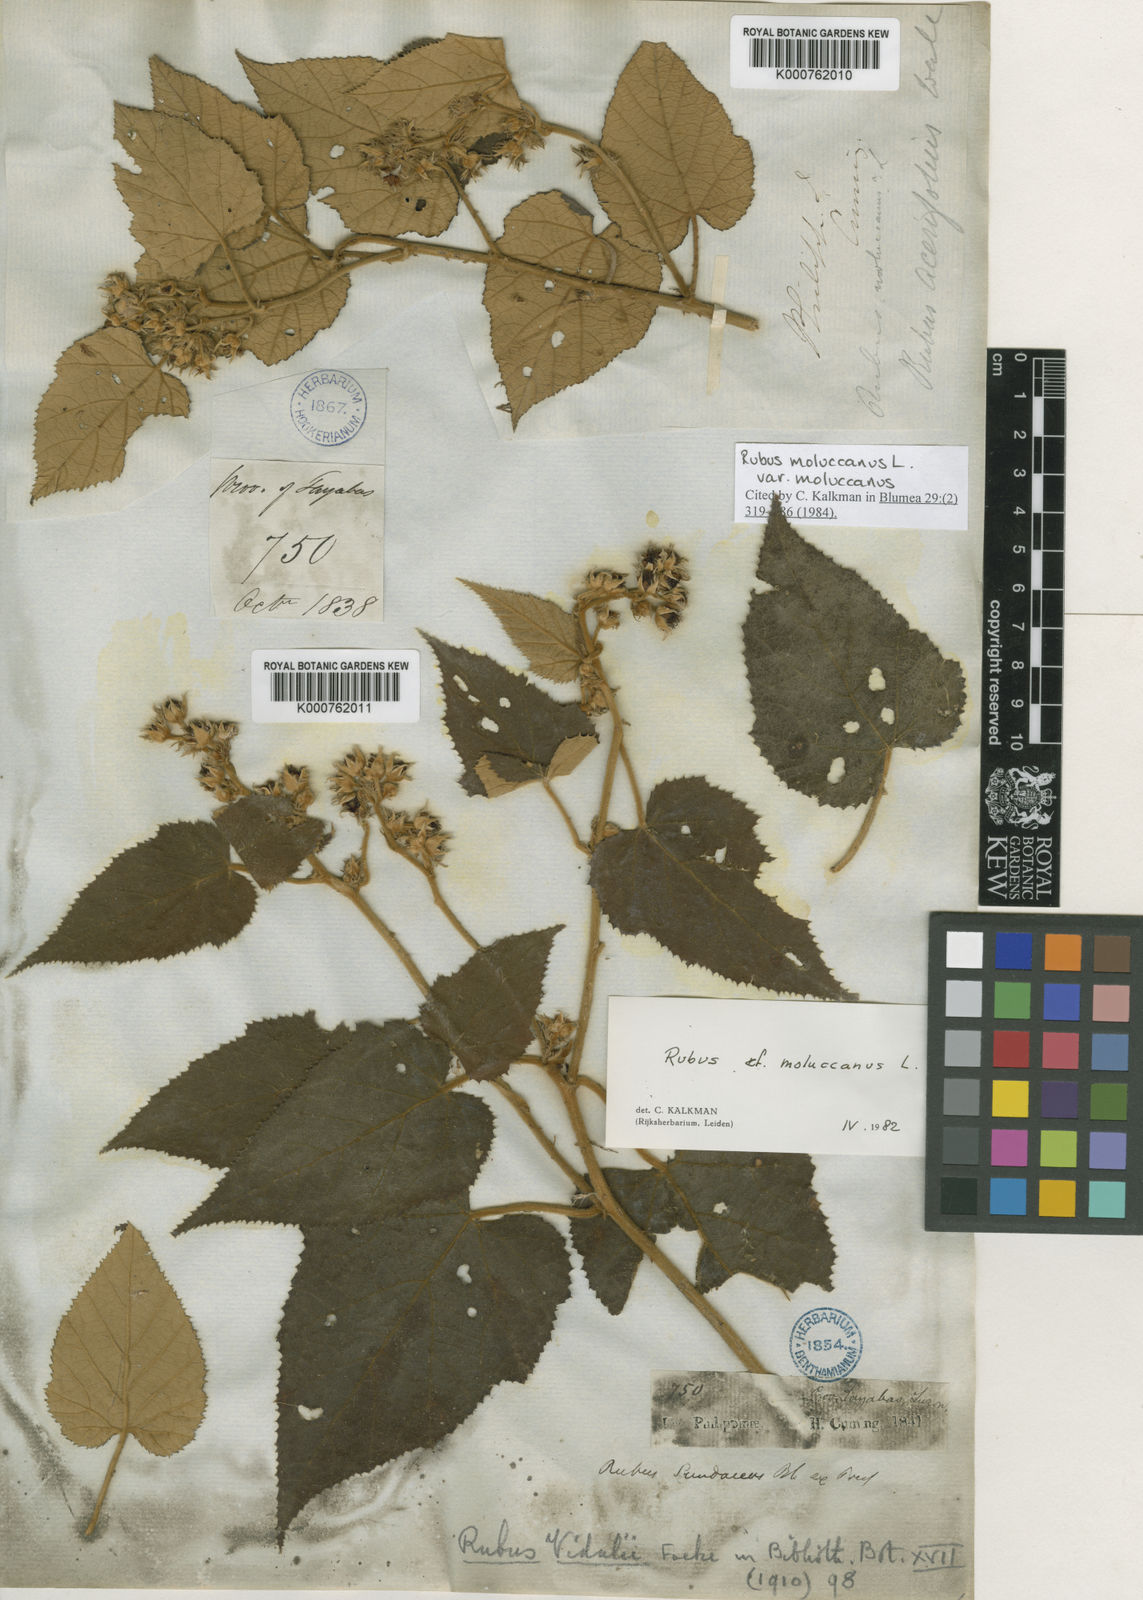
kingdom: Plantae
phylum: Tracheophyta
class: Magnoliopsida
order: Rosales
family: Rosaceae
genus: Rubus
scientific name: Rubus moluccanus
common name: Wild raspberry
